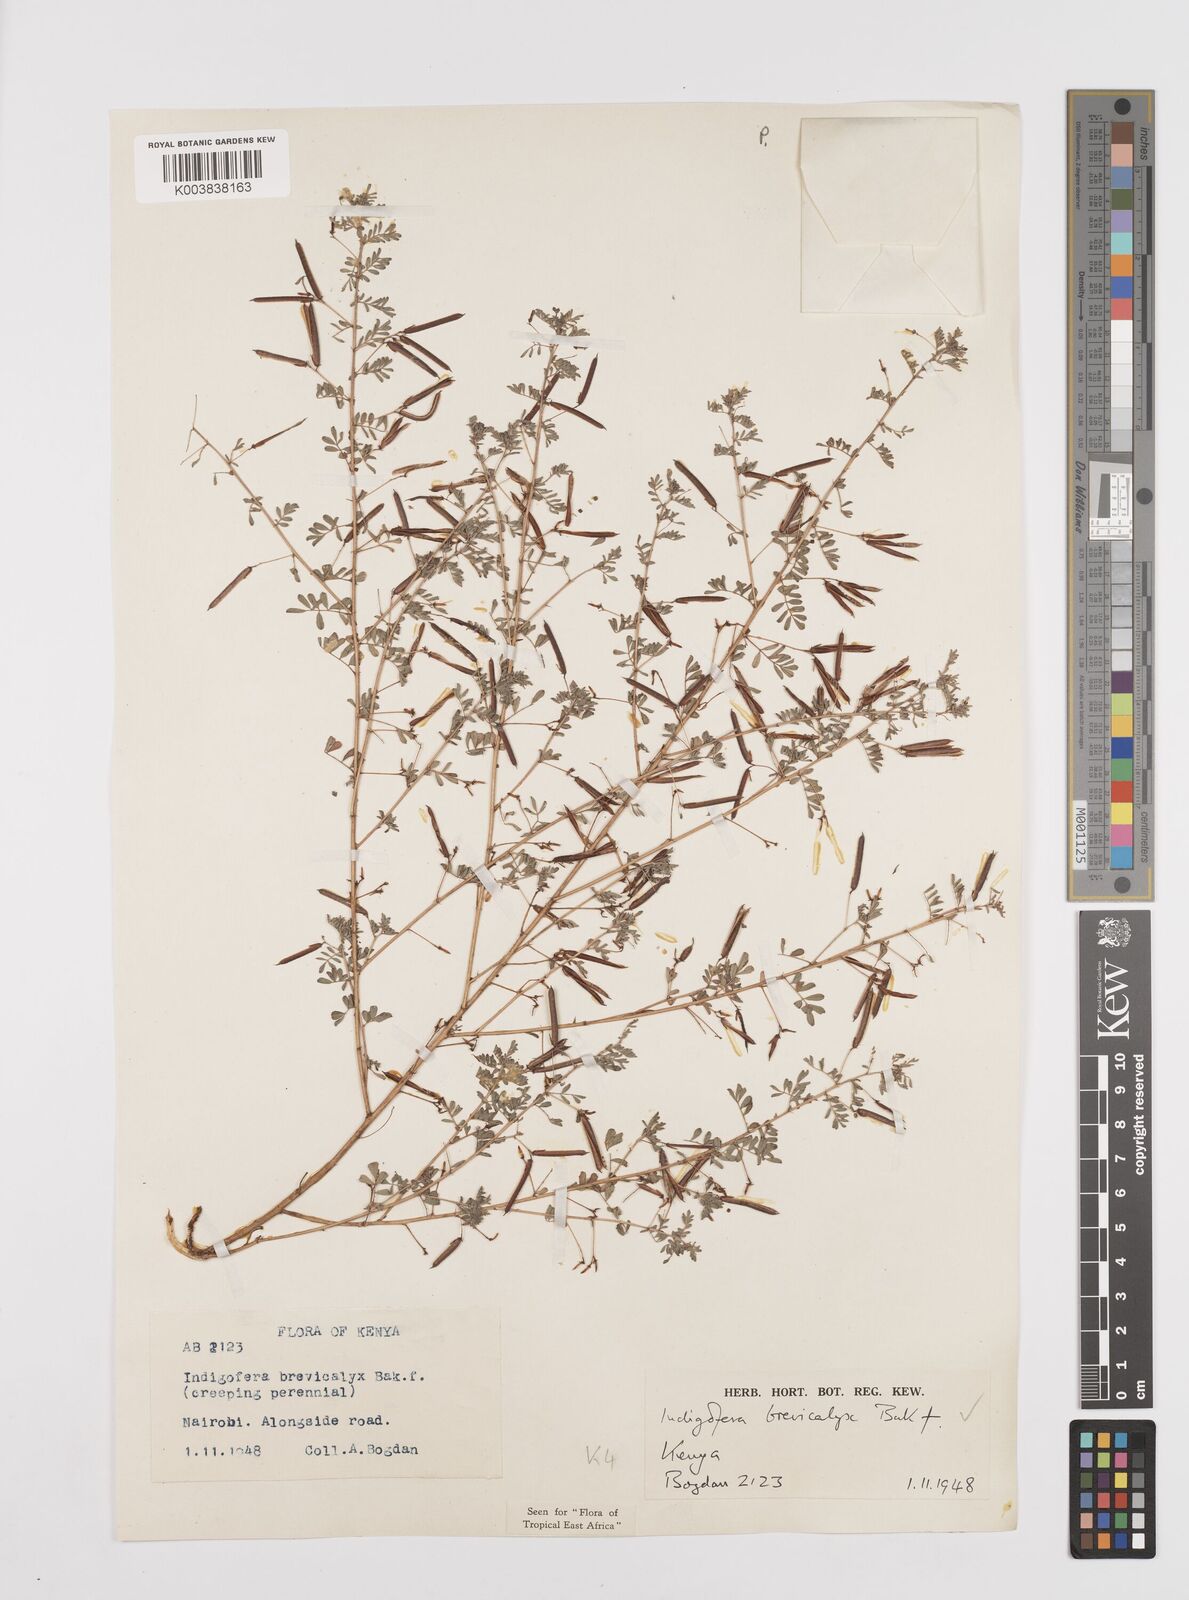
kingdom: Plantae
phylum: Tracheophyta
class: Magnoliopsida
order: Fabales
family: Fabaceae
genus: Indigofera
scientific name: Indigofera brevicalyx
